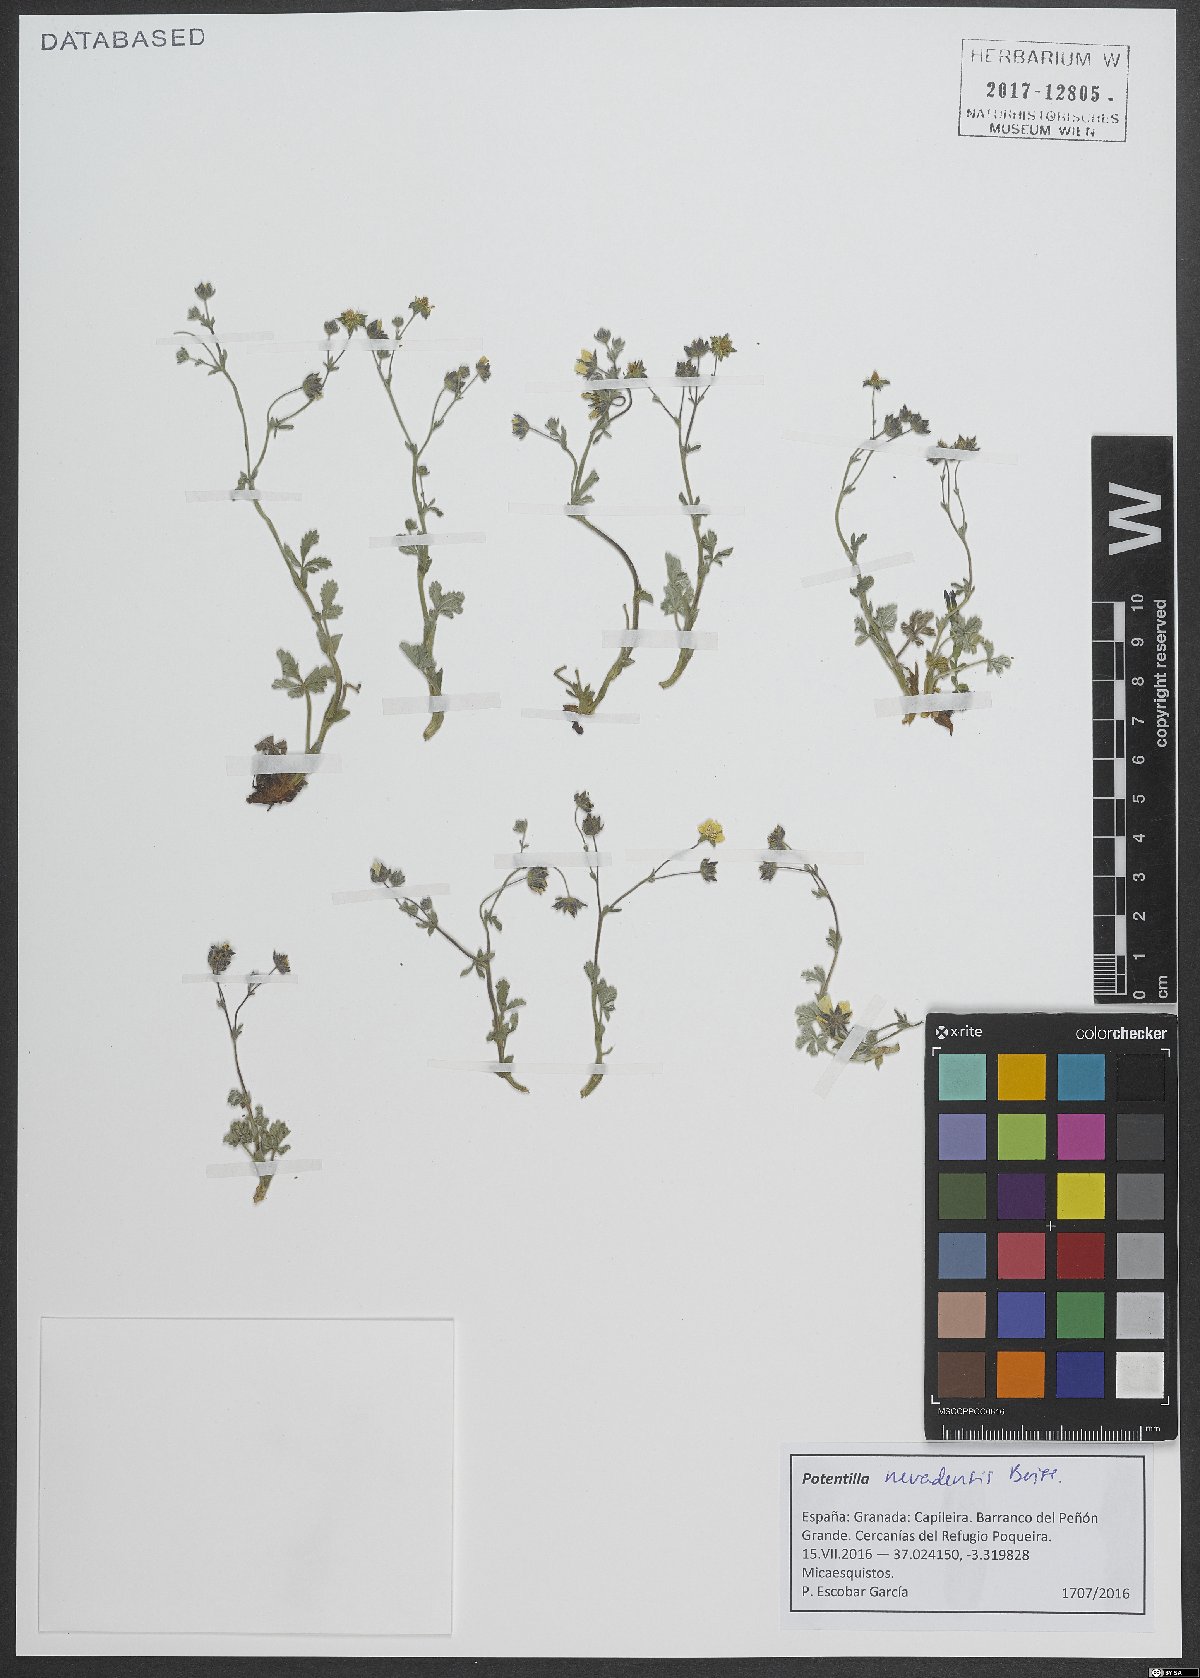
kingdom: Plantae
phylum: Tracheophyta
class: Magnoliopsida
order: Rosales
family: Rosaceae
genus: Potentilla
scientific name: Potentilla nevadensis
